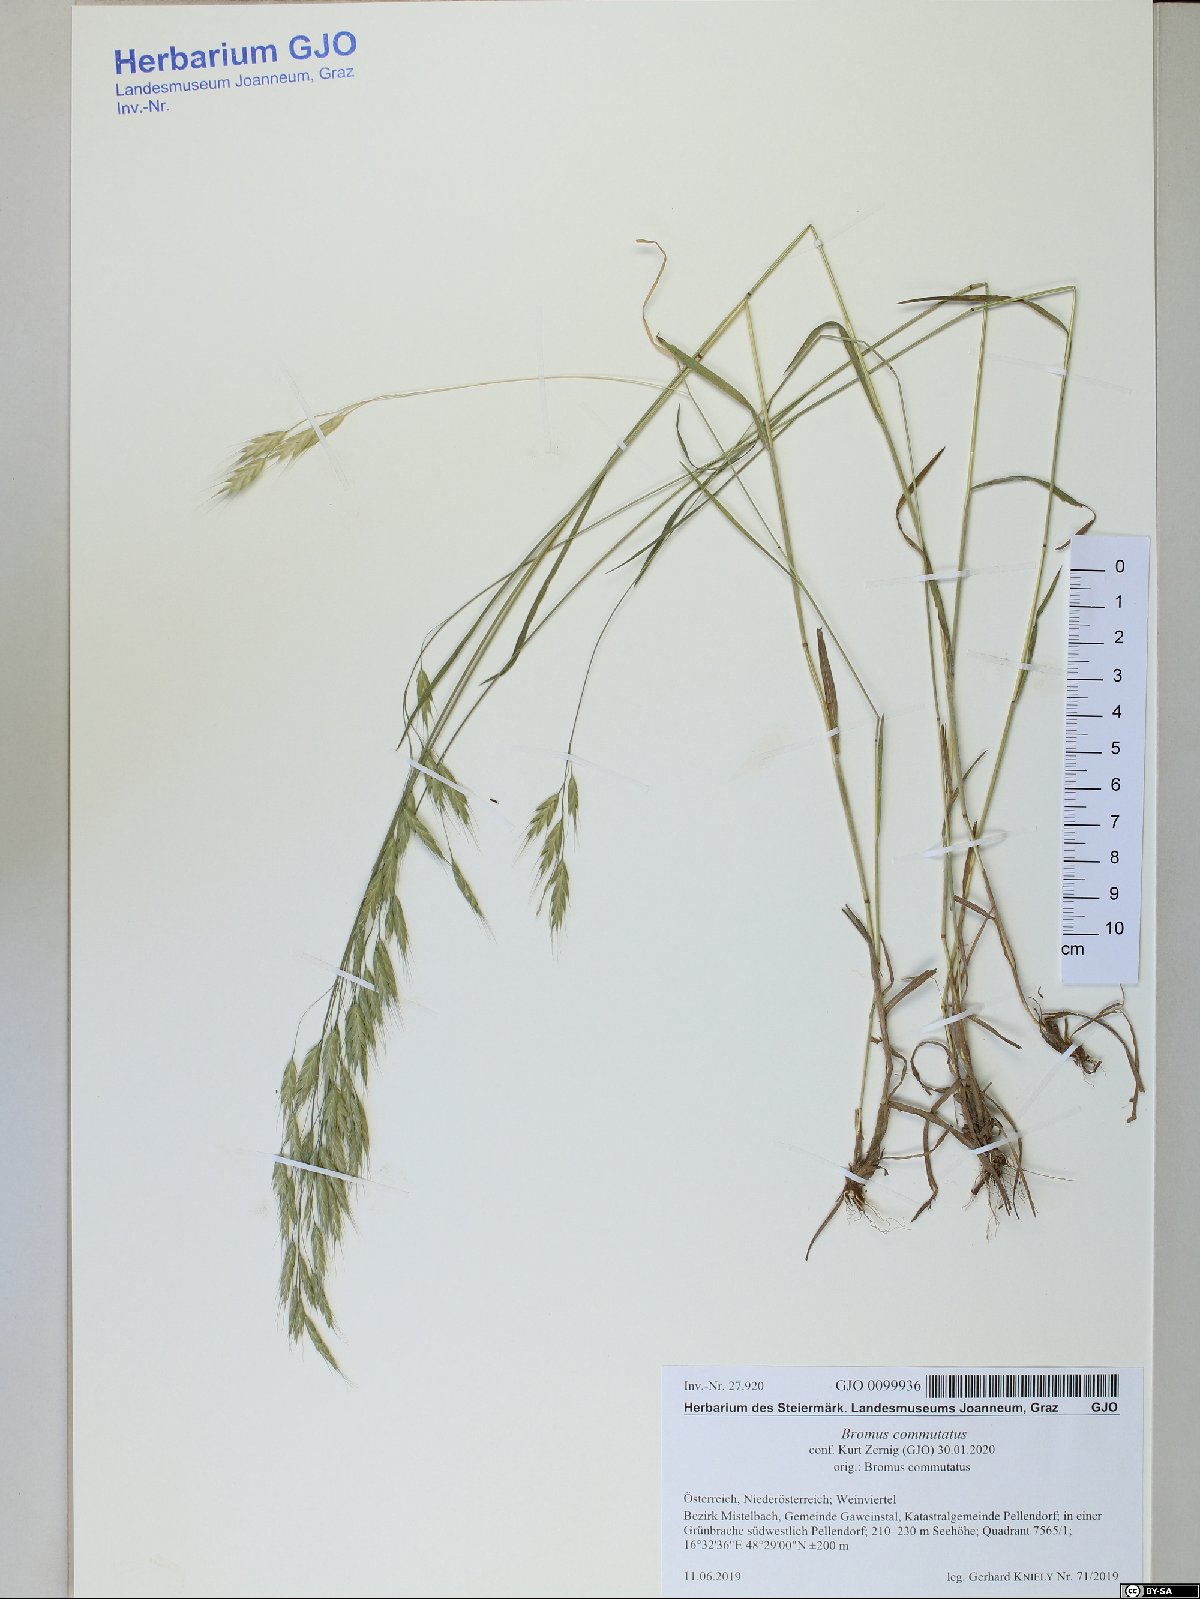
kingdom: Plantae
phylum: Tracheophyta
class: Liliopsida
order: Poales
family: Poaceae
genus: Bromus
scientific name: Bromus commutatus
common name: Meadow brome
